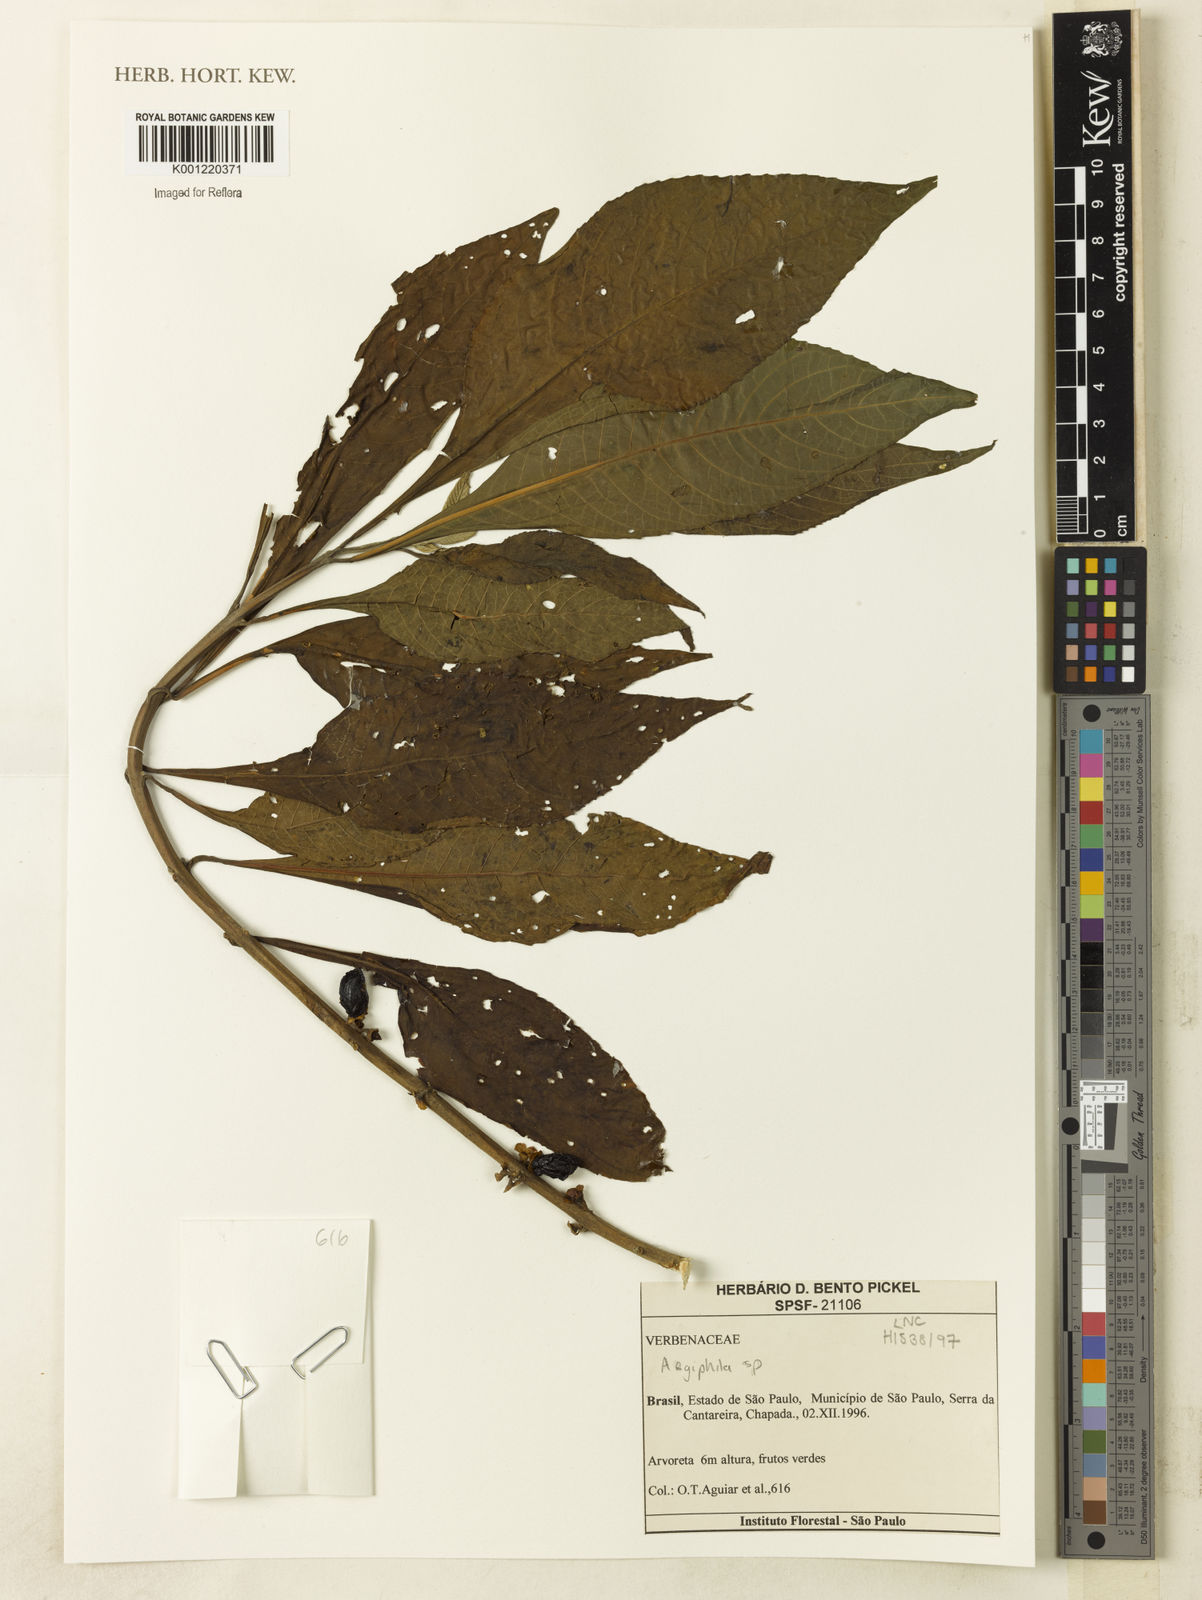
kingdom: Plantae
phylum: Tracheophyta
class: Magnoliopsida
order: Lamiales
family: Lamiaceae
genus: Aegiphila
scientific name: Aegiphila
